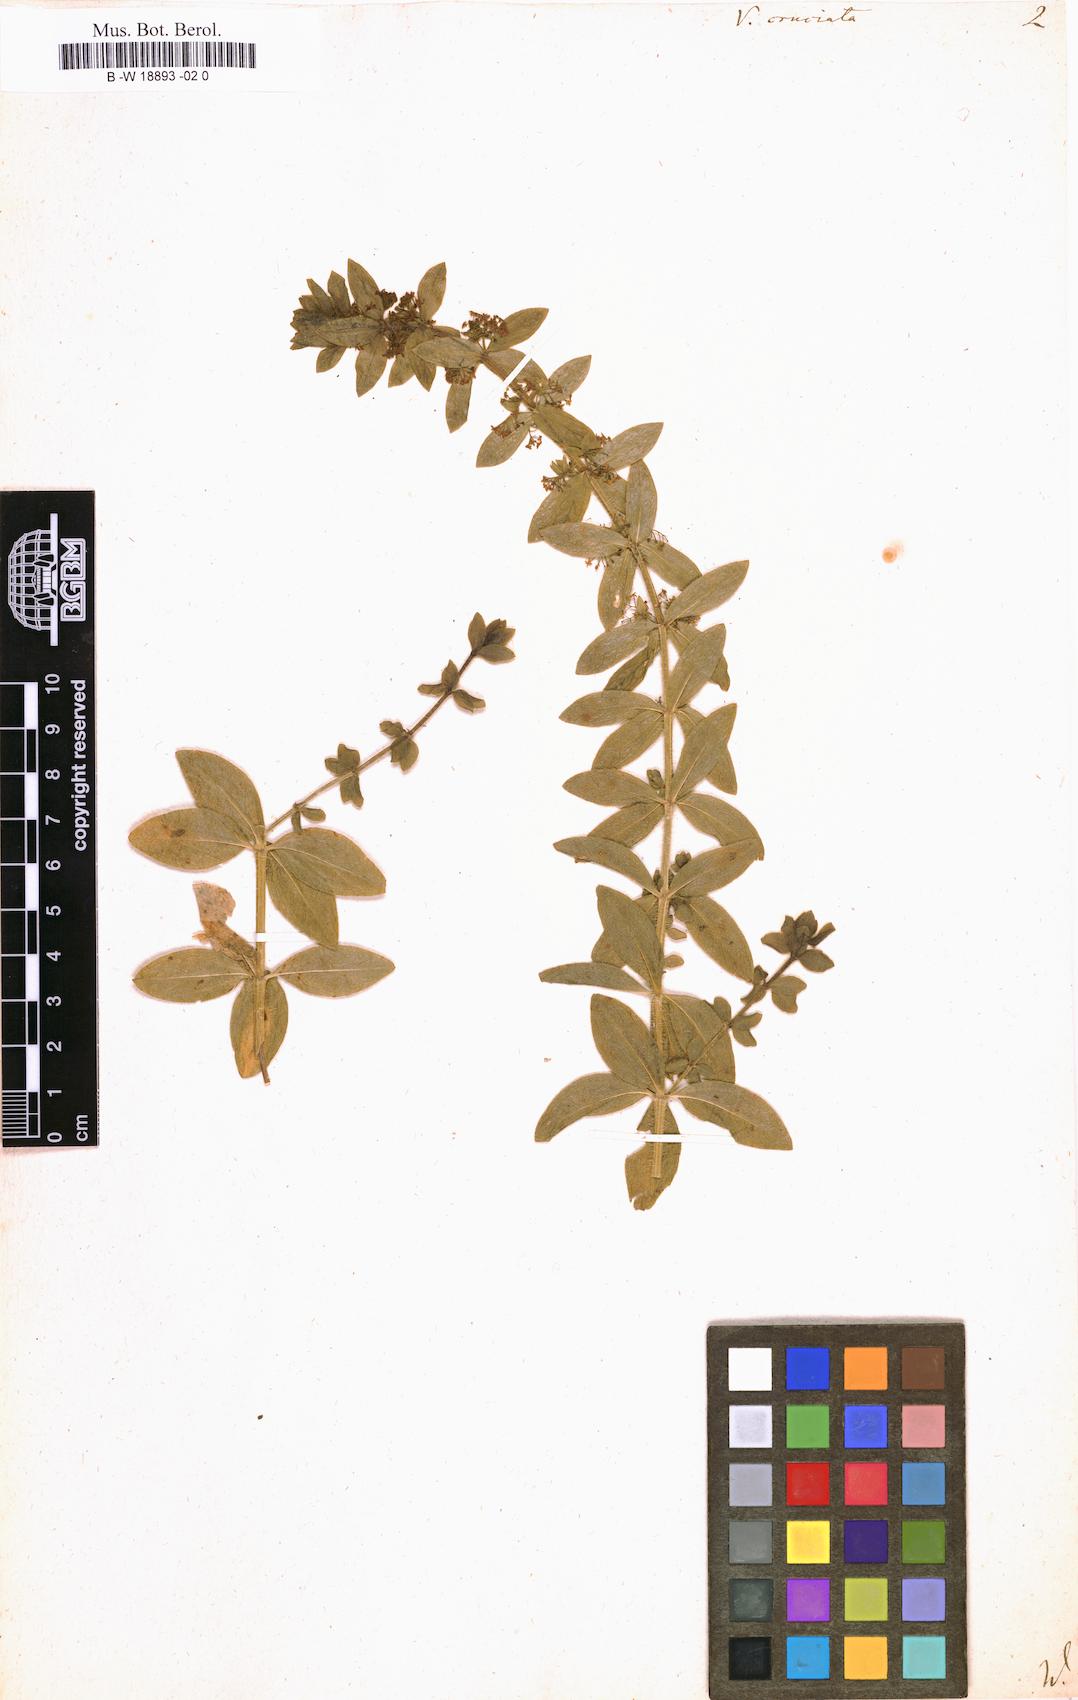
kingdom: Plantae
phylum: Tracheophyta
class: Magnoliopsida
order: Gentianales
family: Rubiaceae
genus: Cruciata
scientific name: Cruciata laevipes
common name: Crosswort
